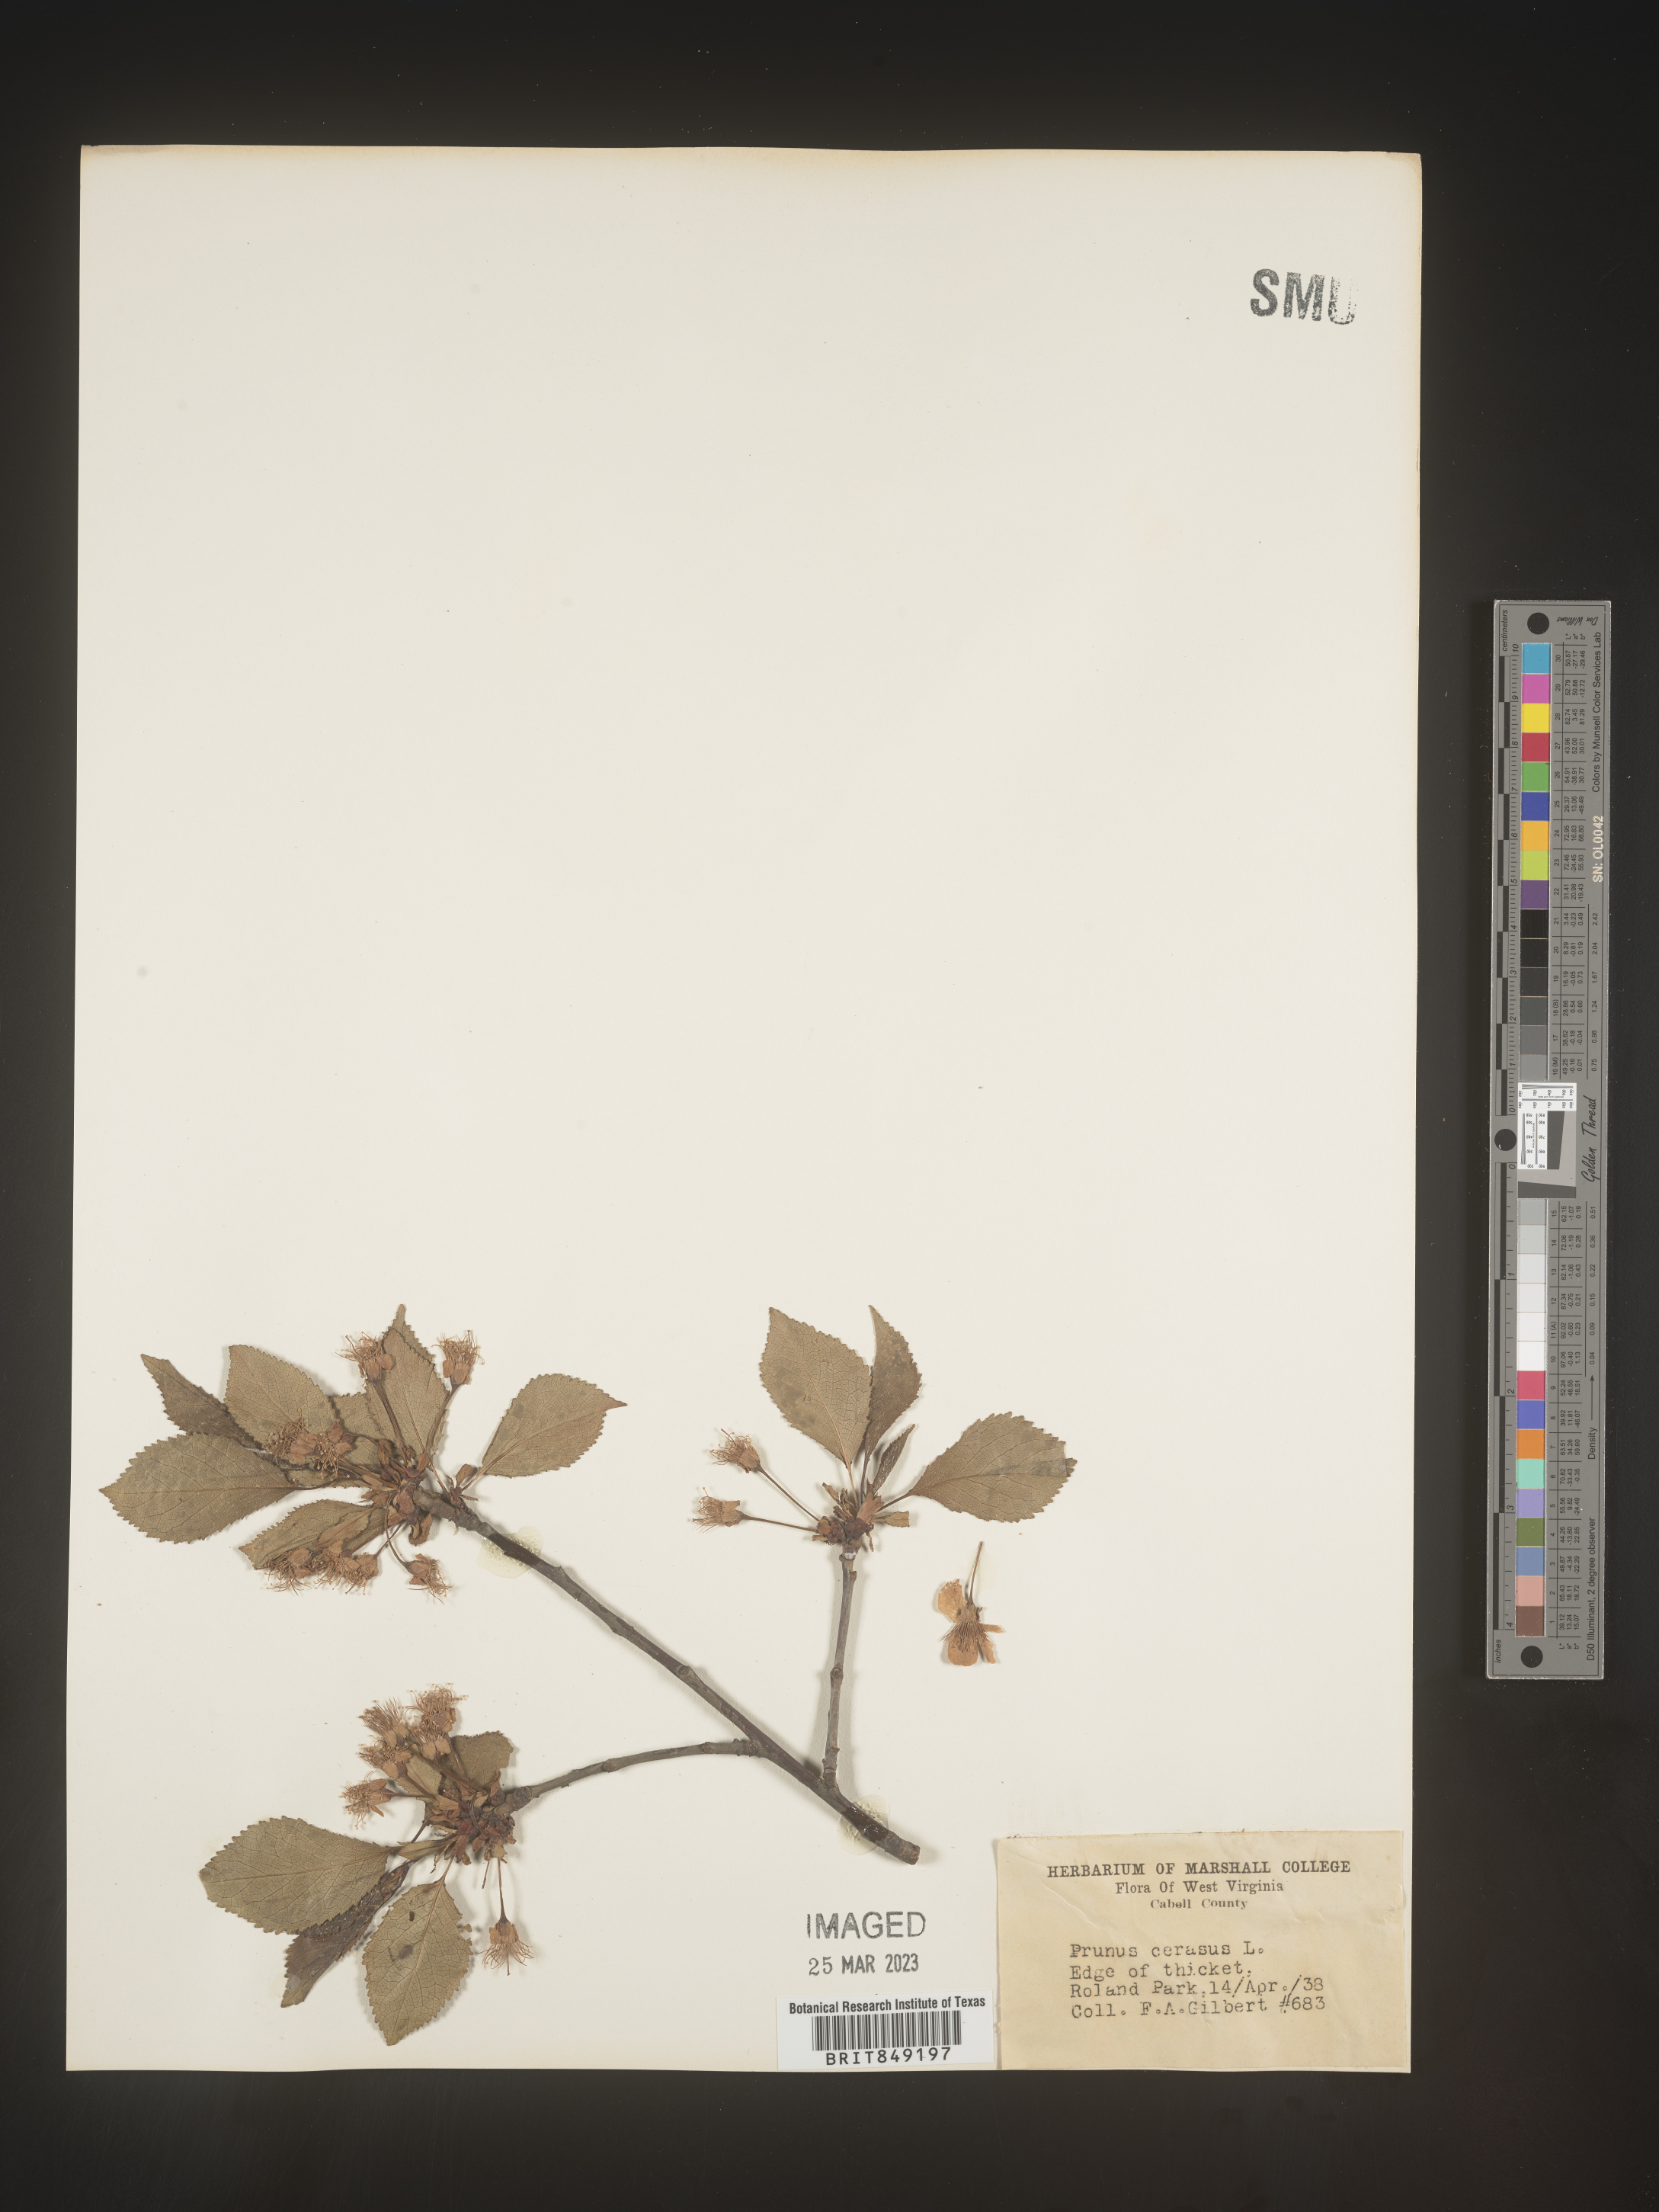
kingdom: Plantae
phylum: Tracheophyta
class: Magnoliopsida
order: Rosales
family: Rosaceae
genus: Prunus
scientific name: Prunus
